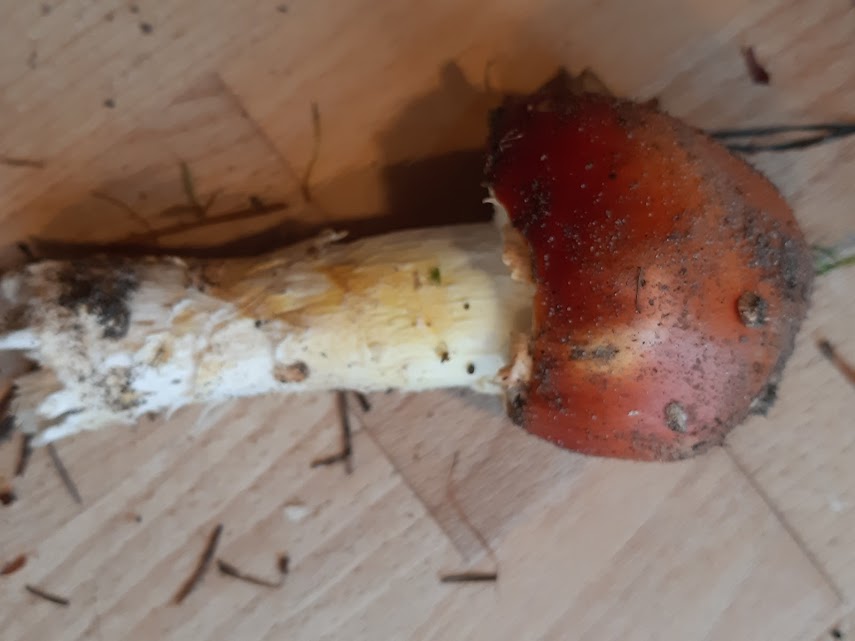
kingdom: Fungi
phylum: Basidiomycota
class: Agaricomycetes
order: Agaricales
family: Amanitaceae
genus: Amanita
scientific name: Amanita muscaria
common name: rød fluesvamp
